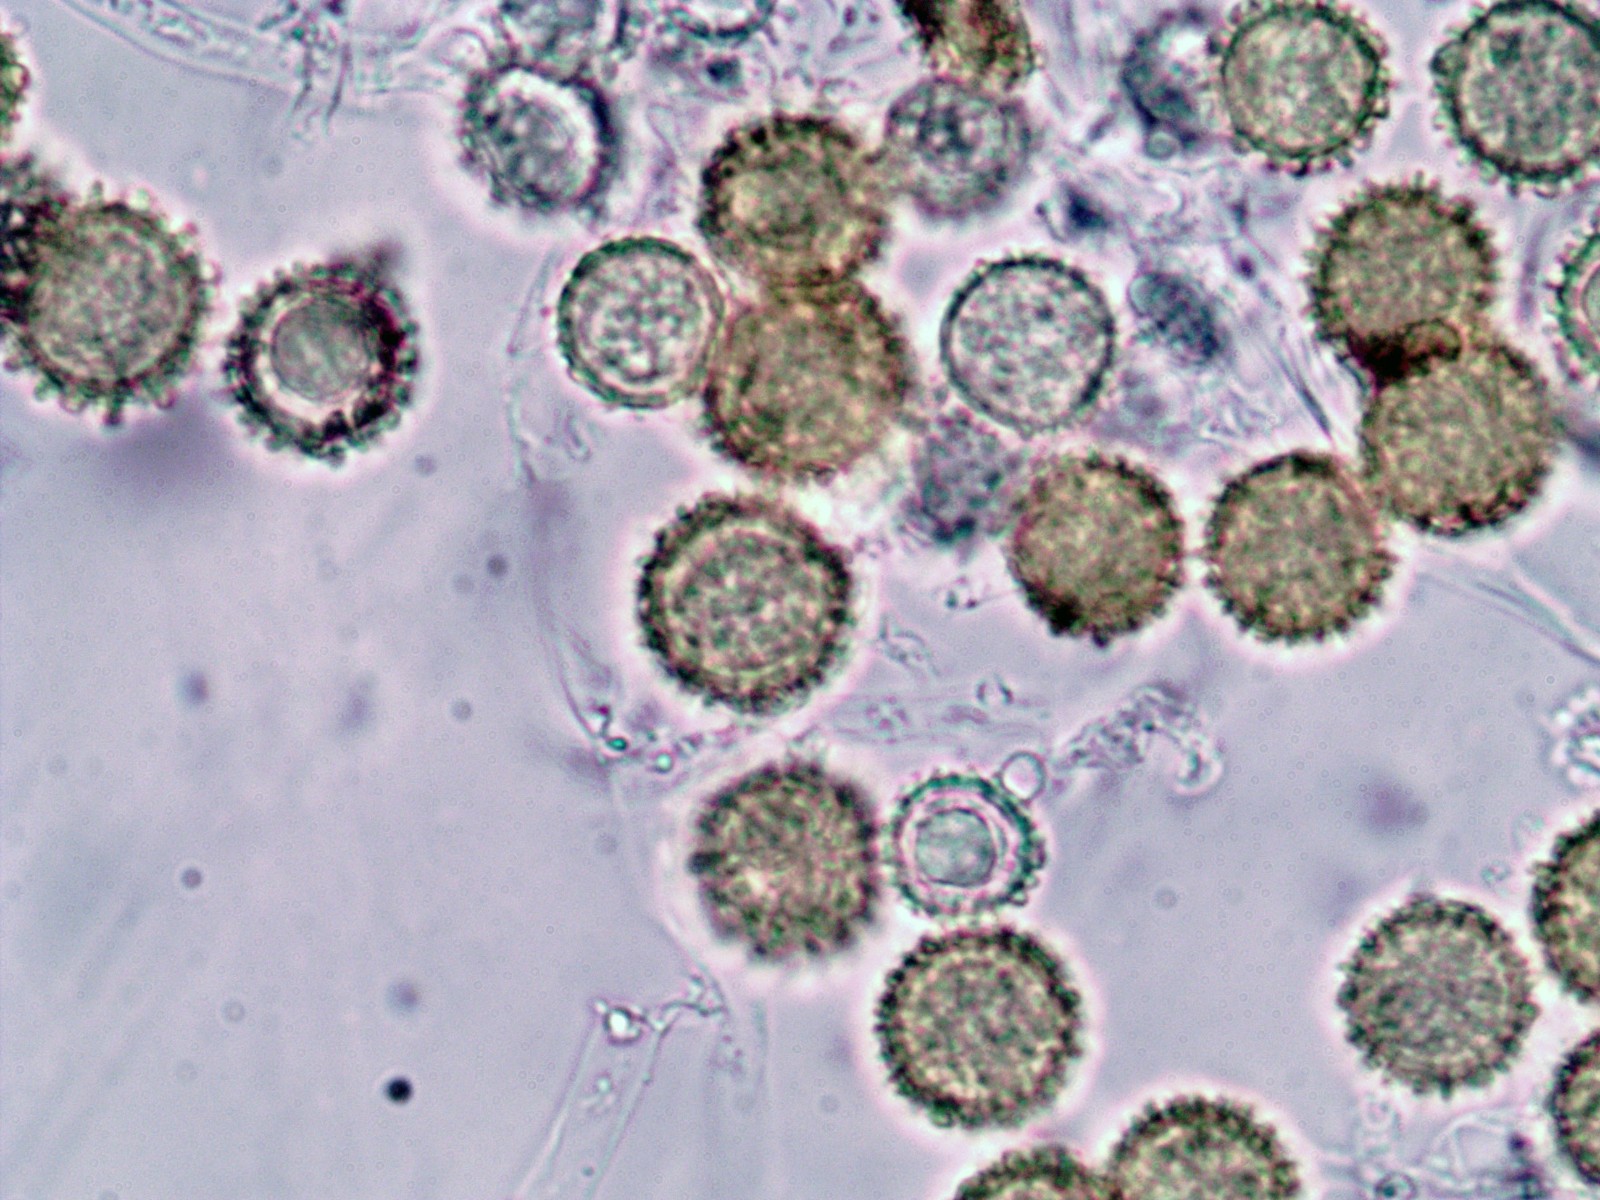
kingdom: Fungi
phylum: Ascomycota
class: Sordariomycetes
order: Hypocreales
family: Hypocreaceae
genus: Hypomyces
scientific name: Hypomyces chrysospermus
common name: gulskimmel-snylteskorpe
